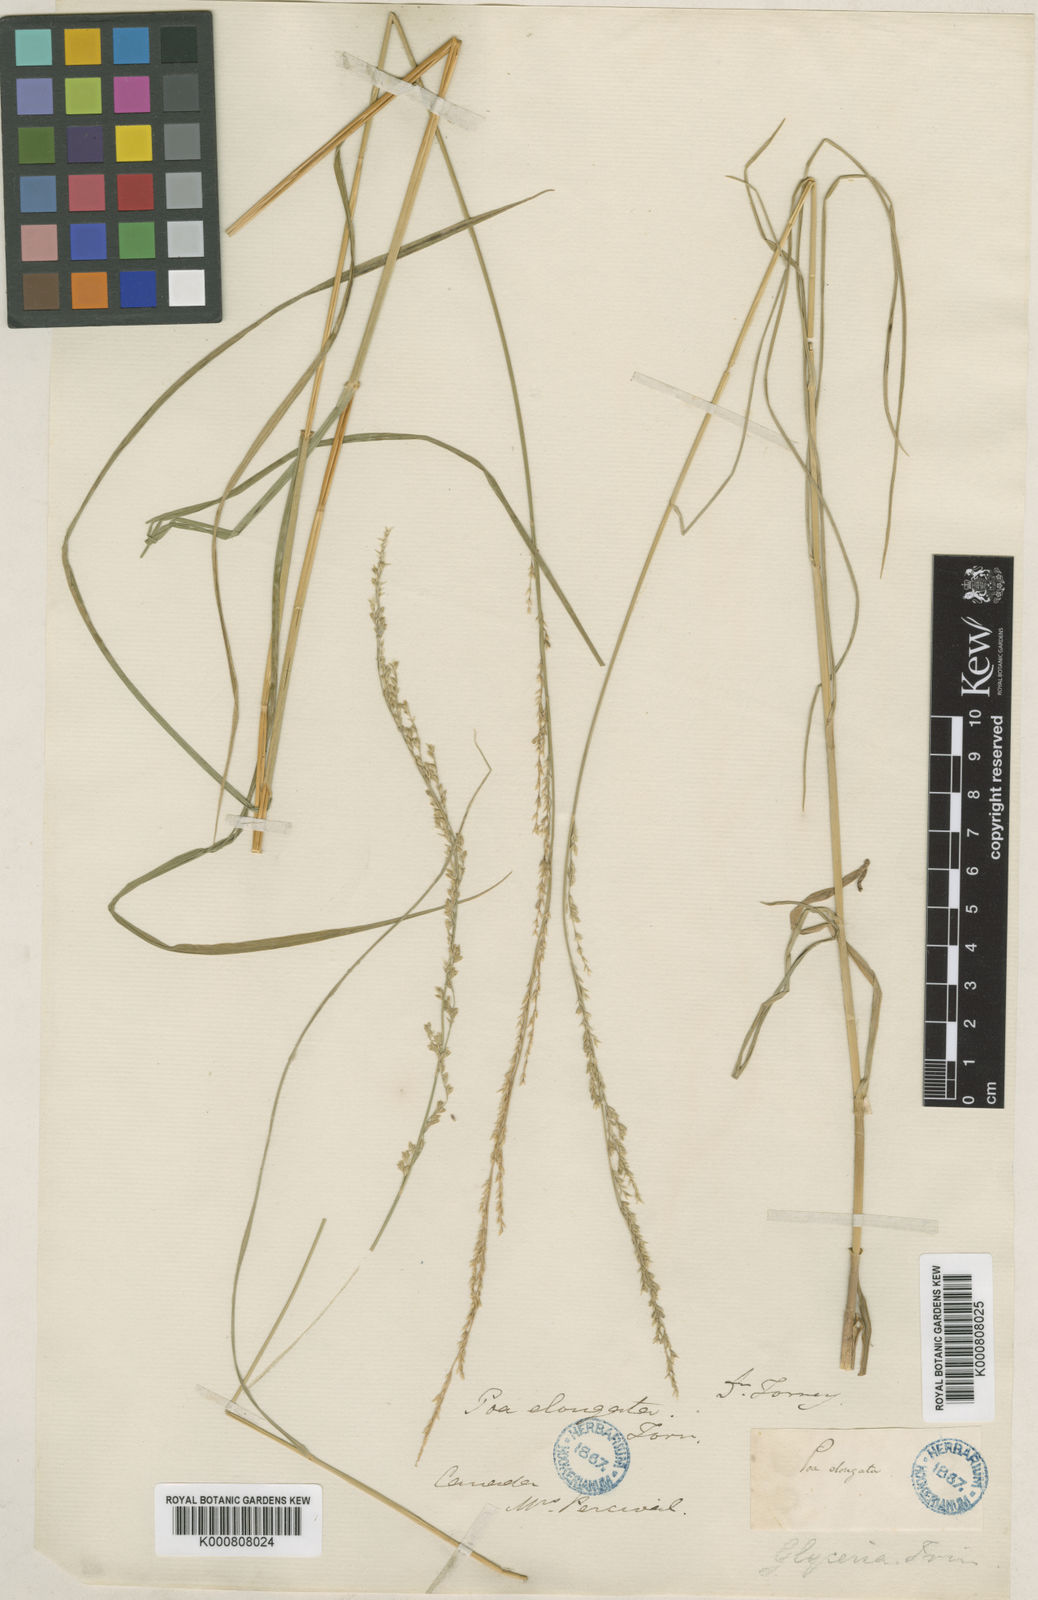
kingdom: Plantae
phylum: Tracheophyta
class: Liliopsida
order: Poales
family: Poaceae
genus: Glyceria
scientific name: Glyceria melicaria
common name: Long mannagrass
